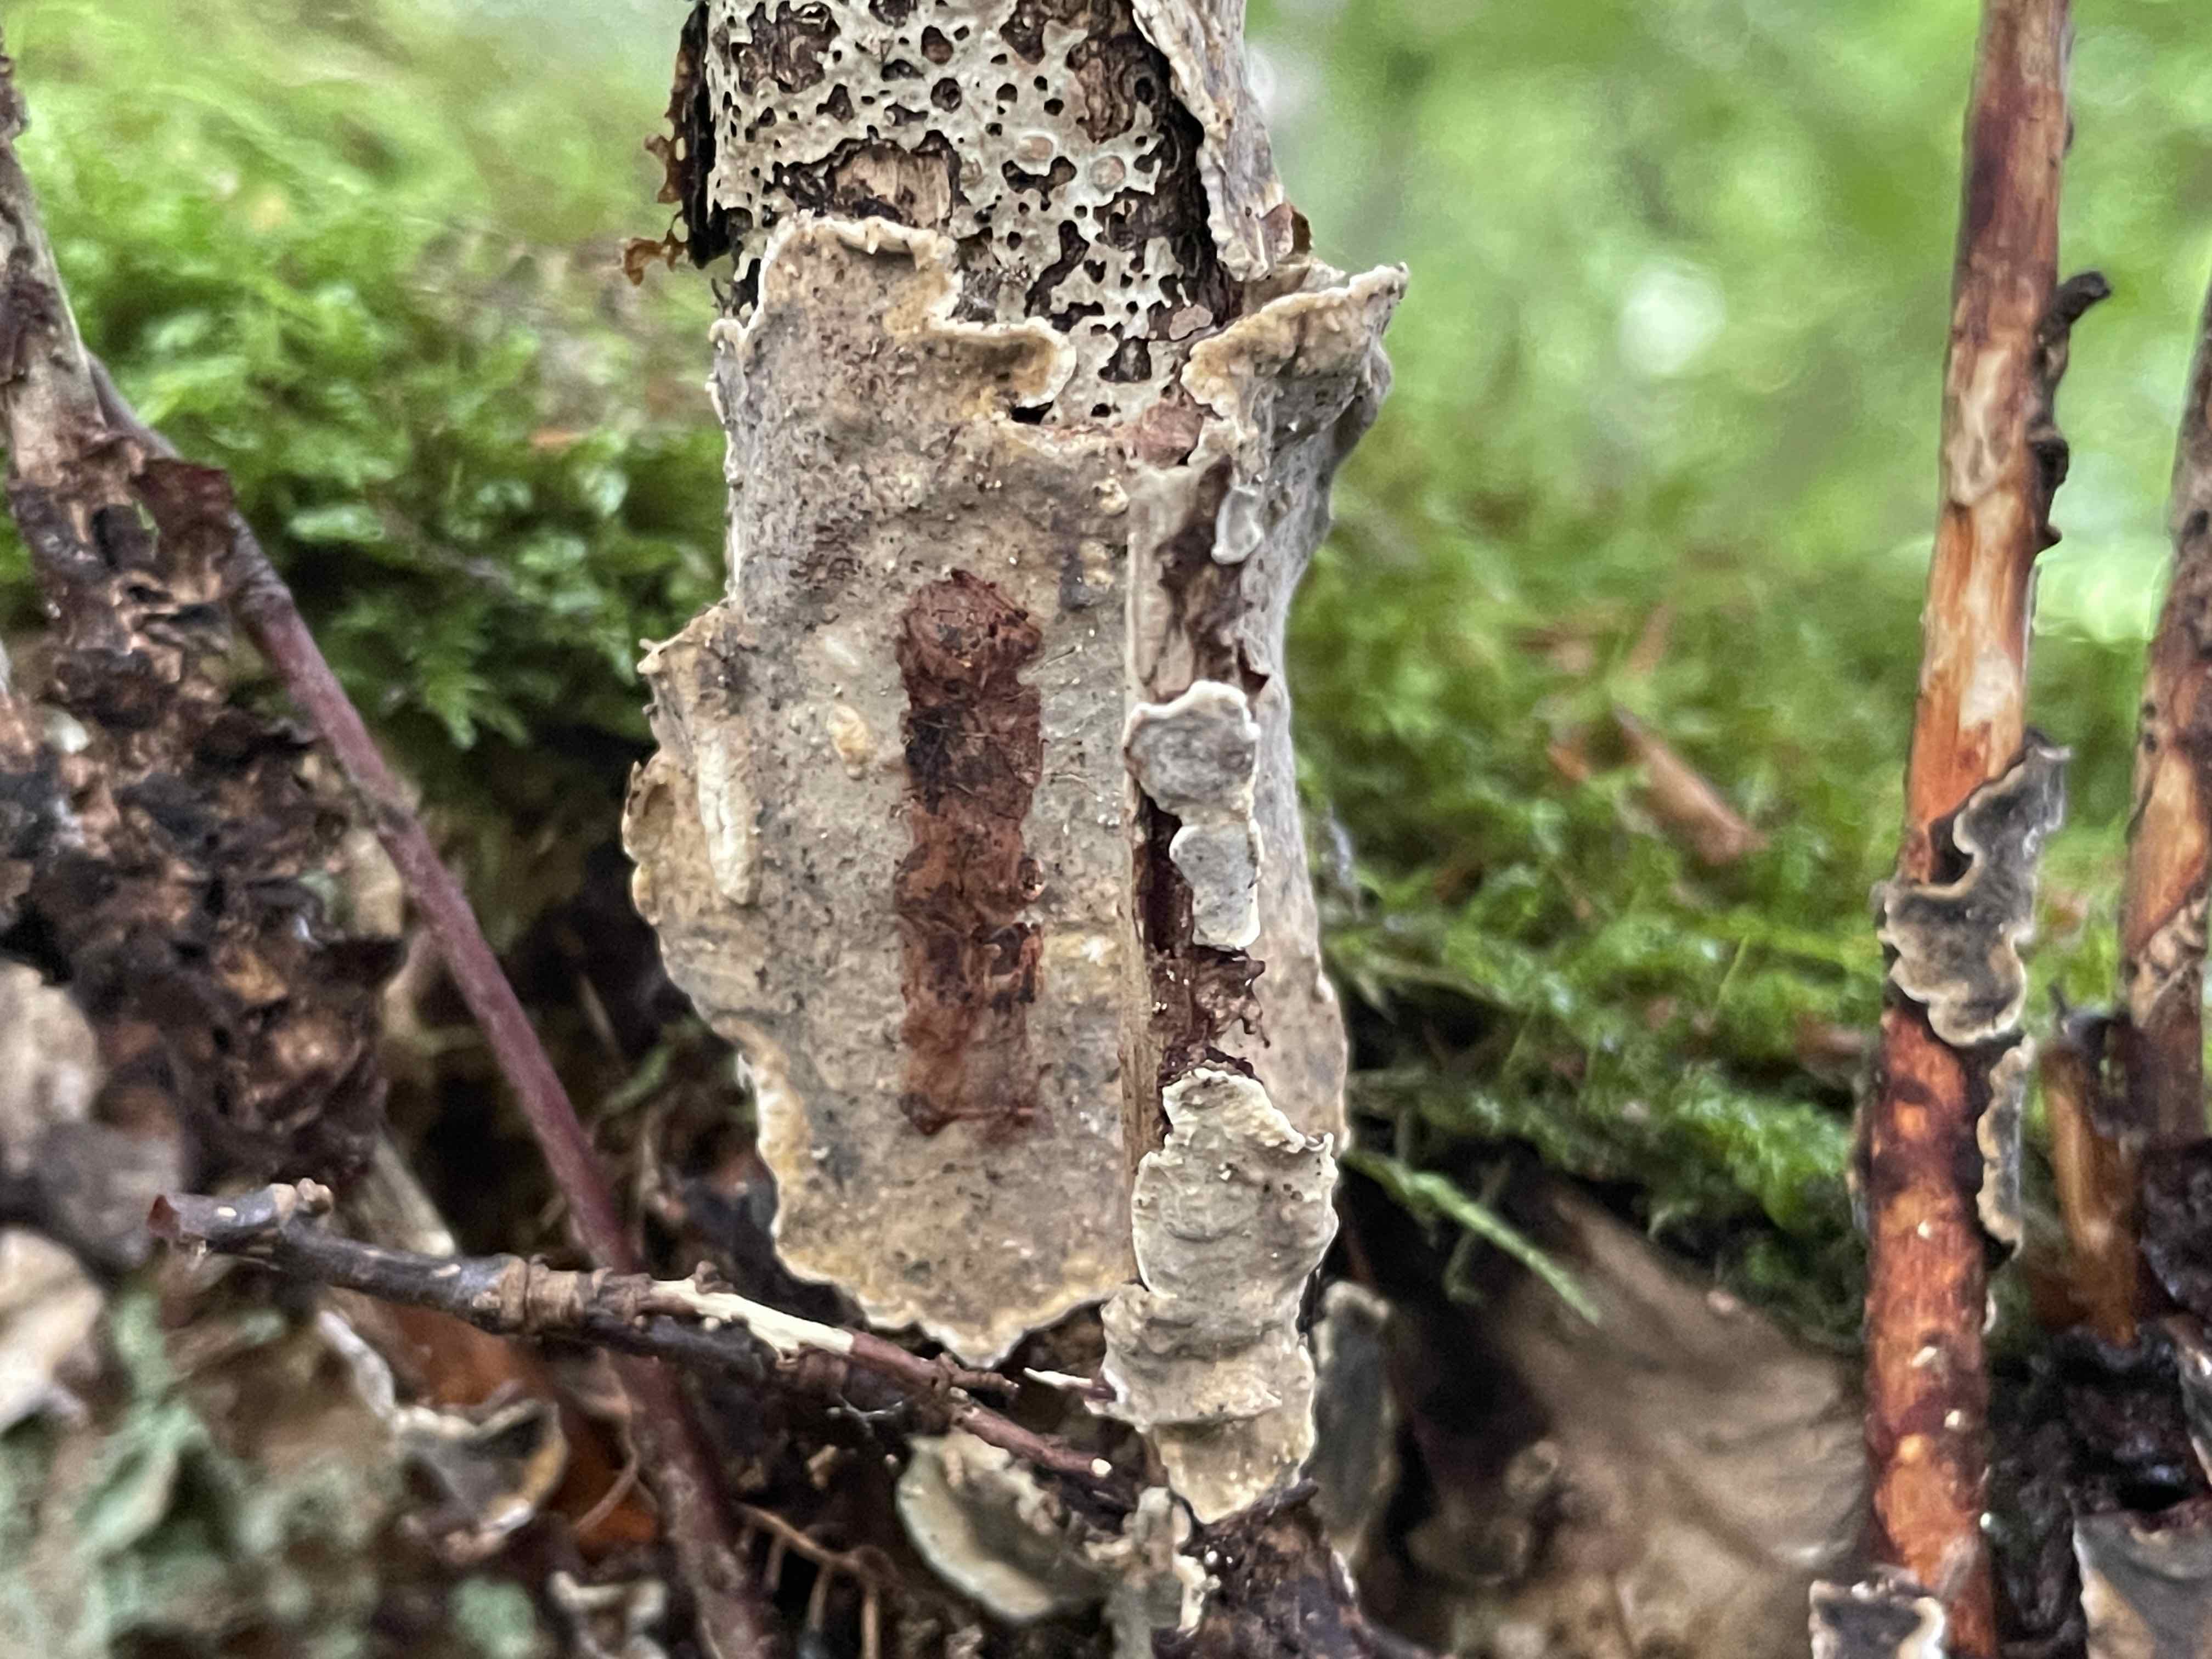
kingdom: Fungi
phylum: Basidiomycota
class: Agaricomycetes
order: Russulales
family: Stereaceae
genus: Stereum
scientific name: Stereum rugosum
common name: rynket lædersvamp
